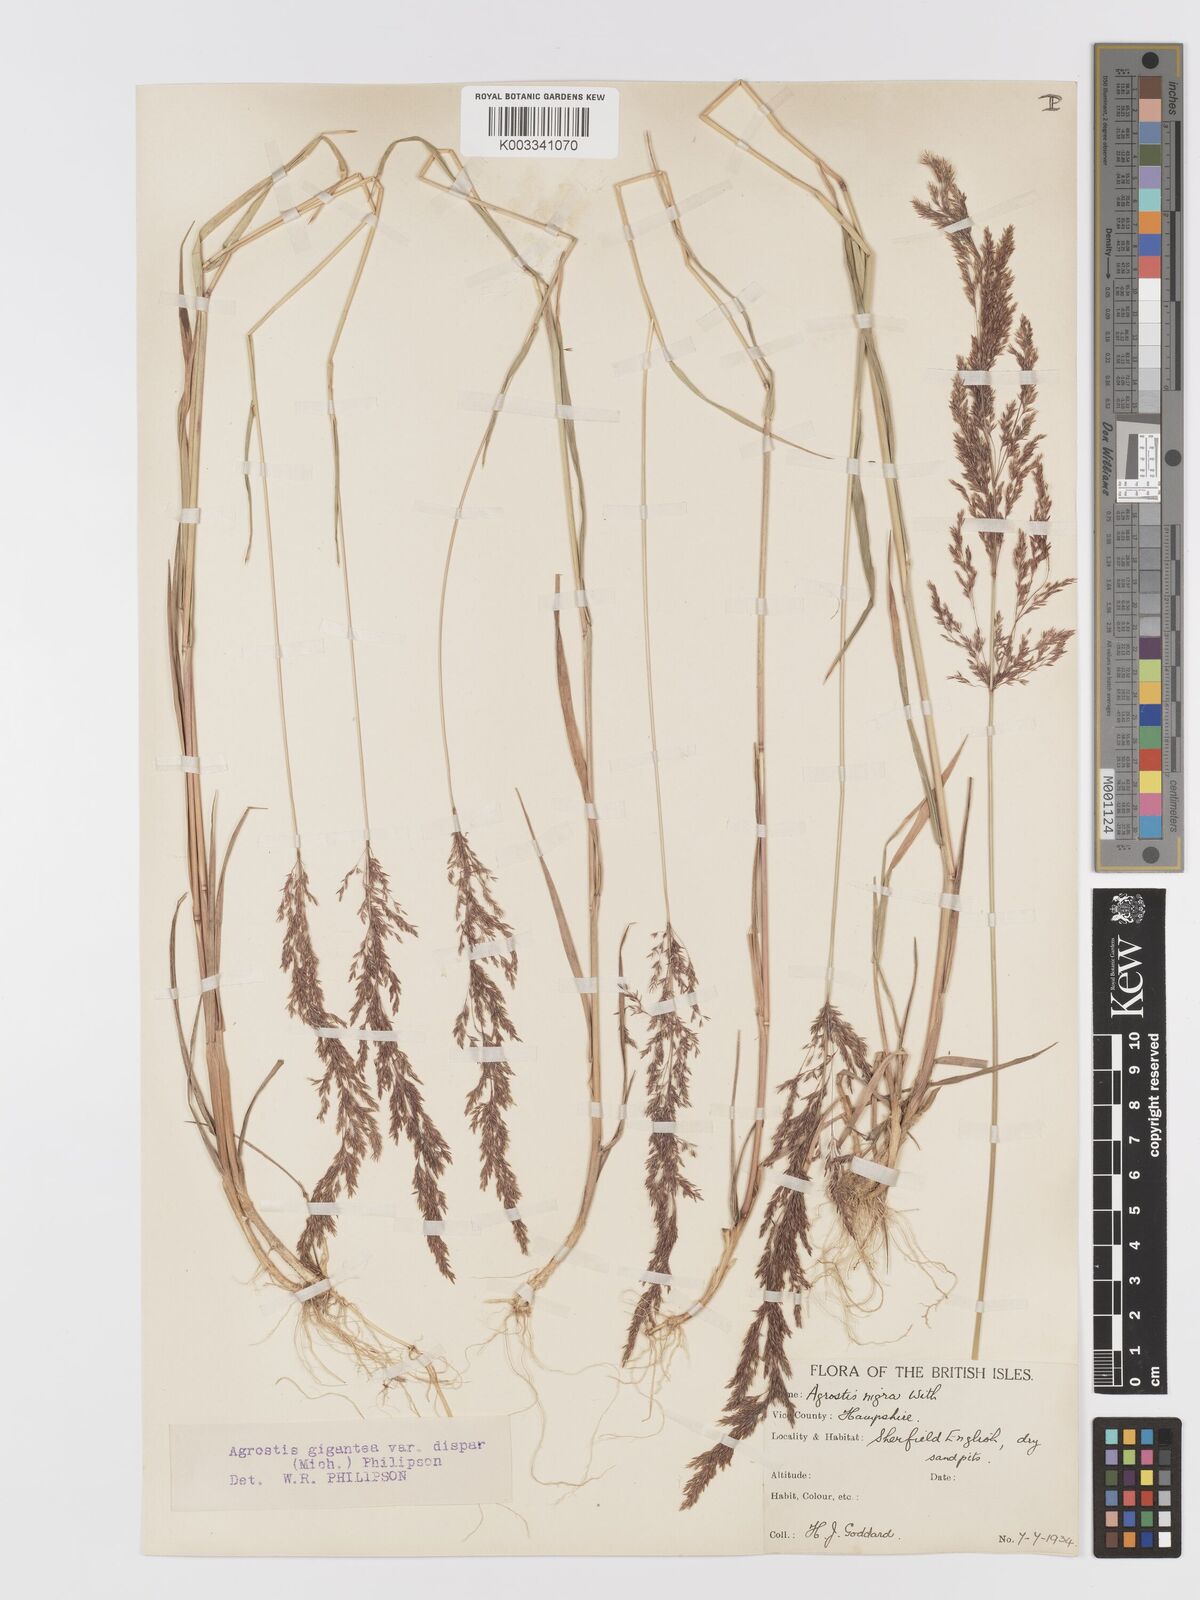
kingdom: Plantae
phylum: Tracheophyta
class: Liliopsida
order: Poales
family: Poaceae
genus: Agrostis
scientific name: Agrostis gigantea
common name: Black bent
